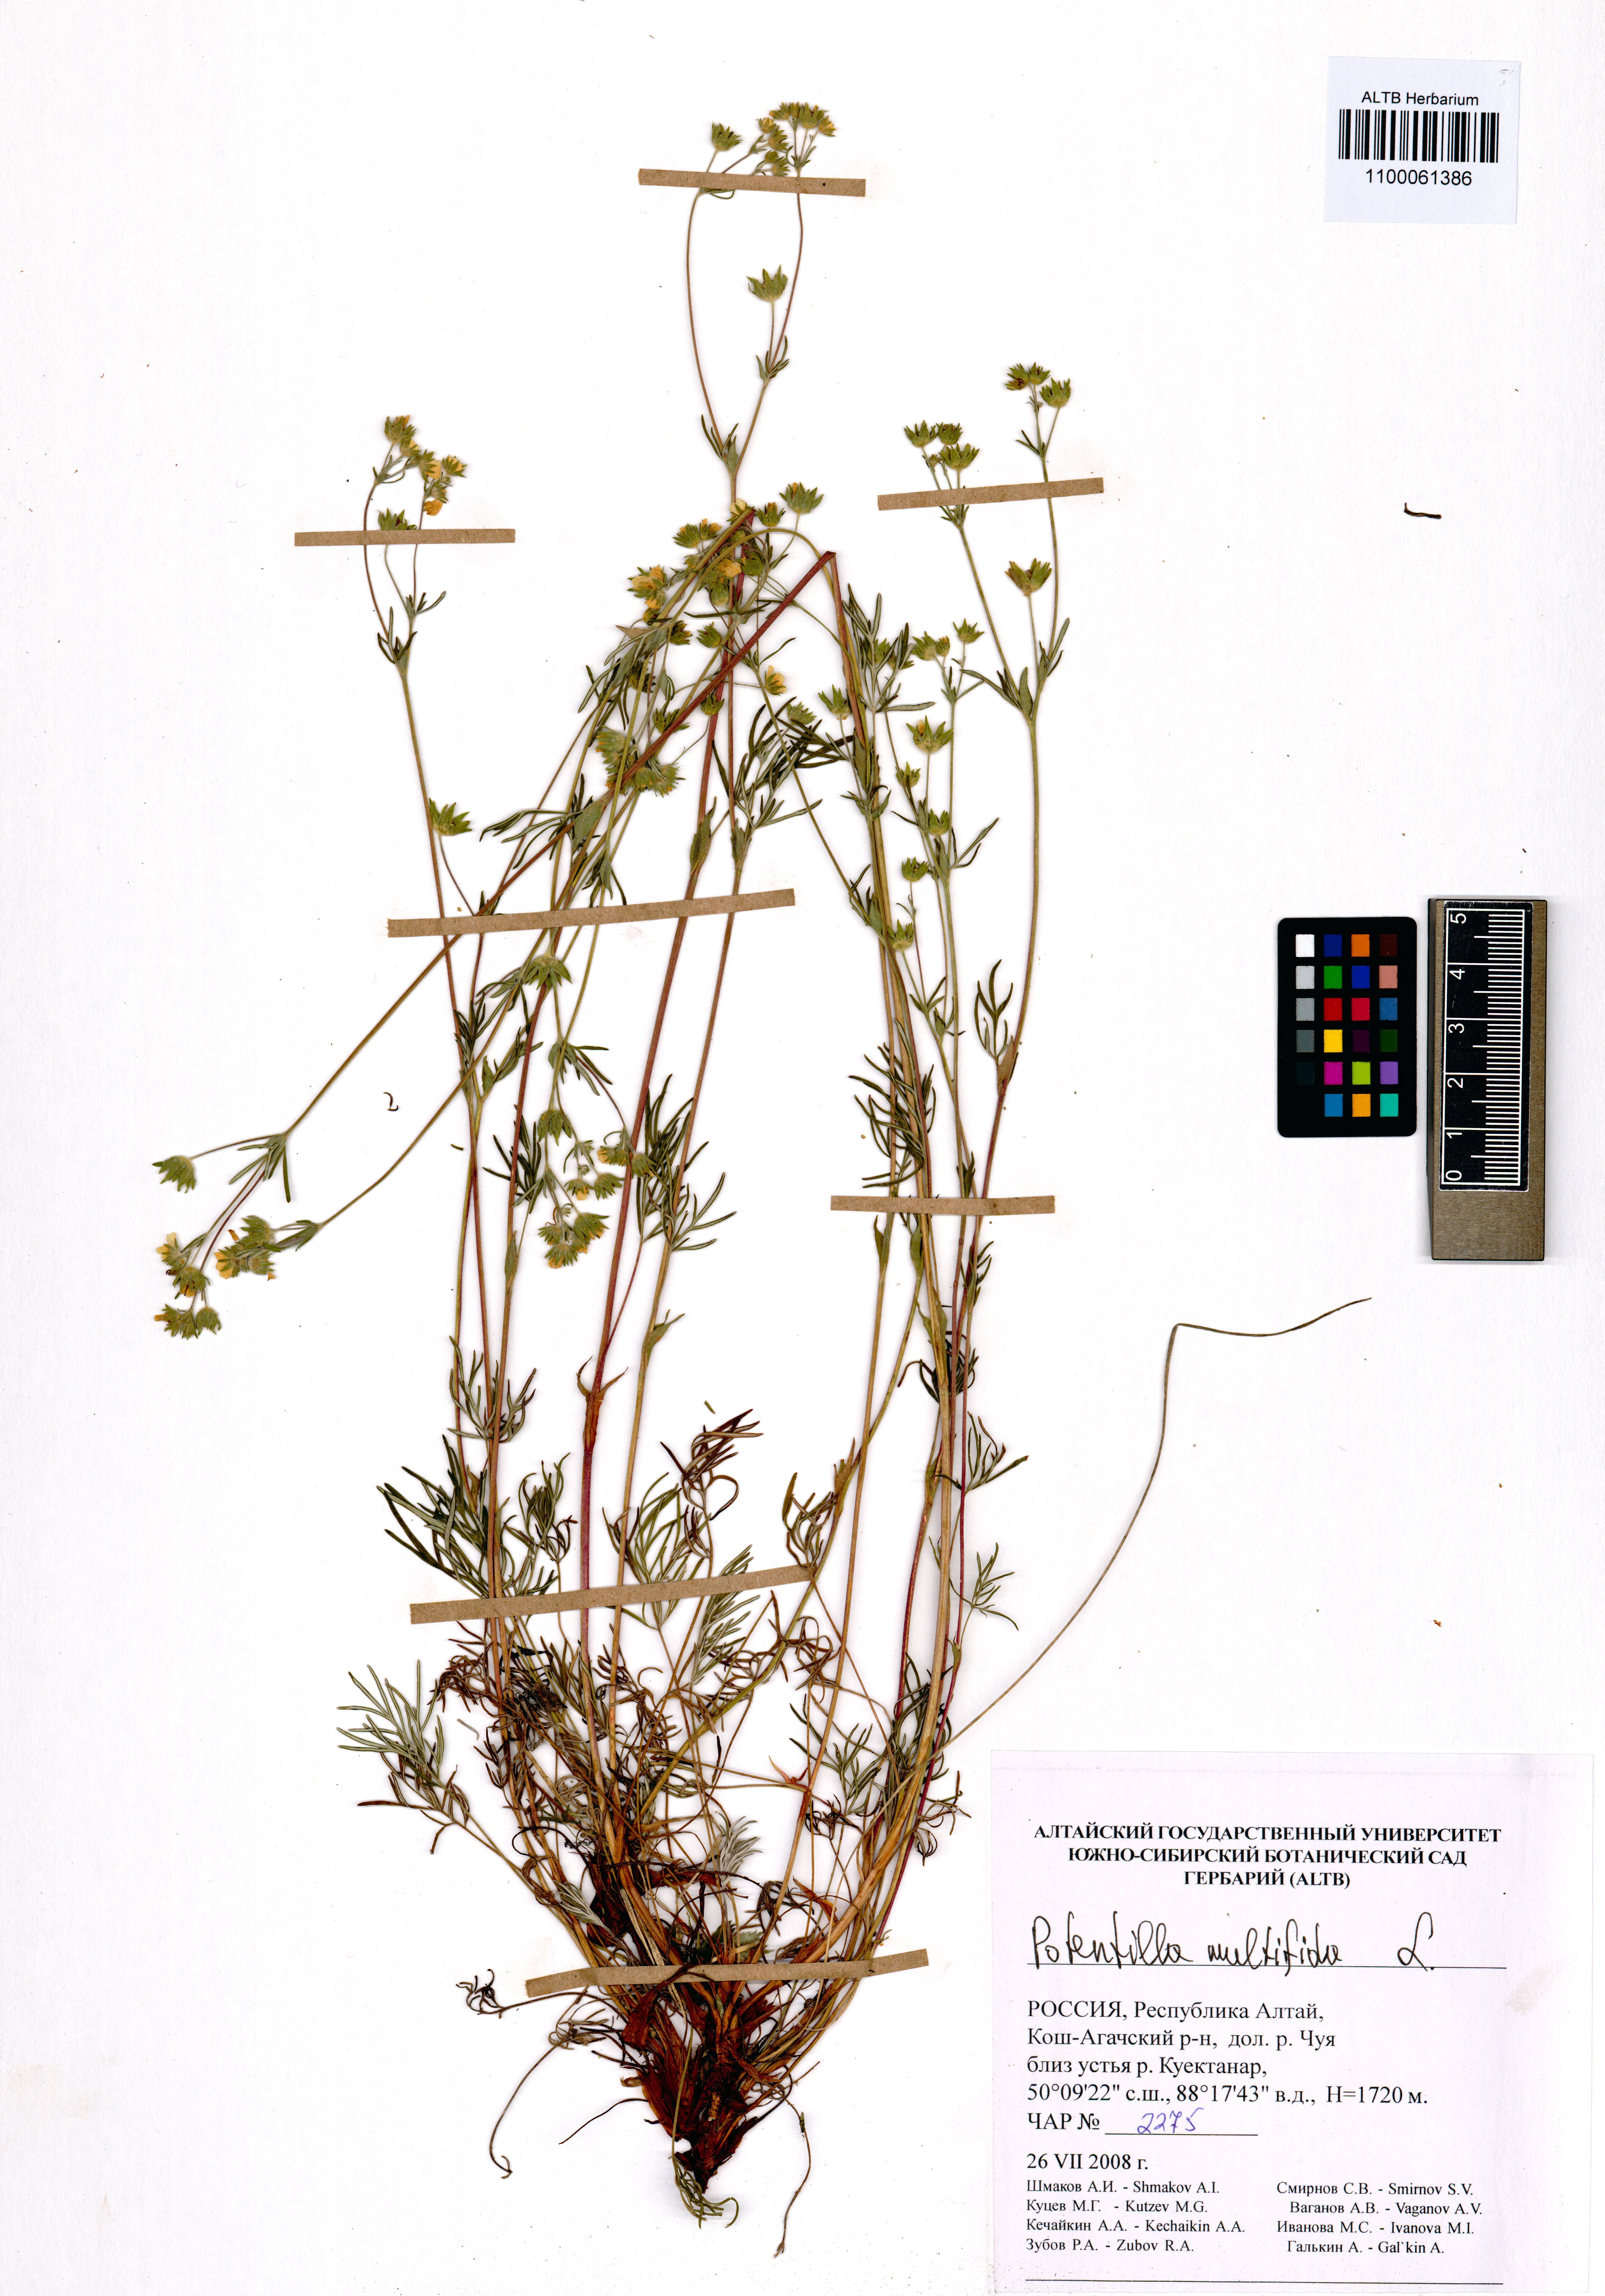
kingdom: Plantae
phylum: Tracheophyta
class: Magnoliopsida
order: Rosales
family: Rosaceae
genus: Potentilla
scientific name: Potentilla multifida
